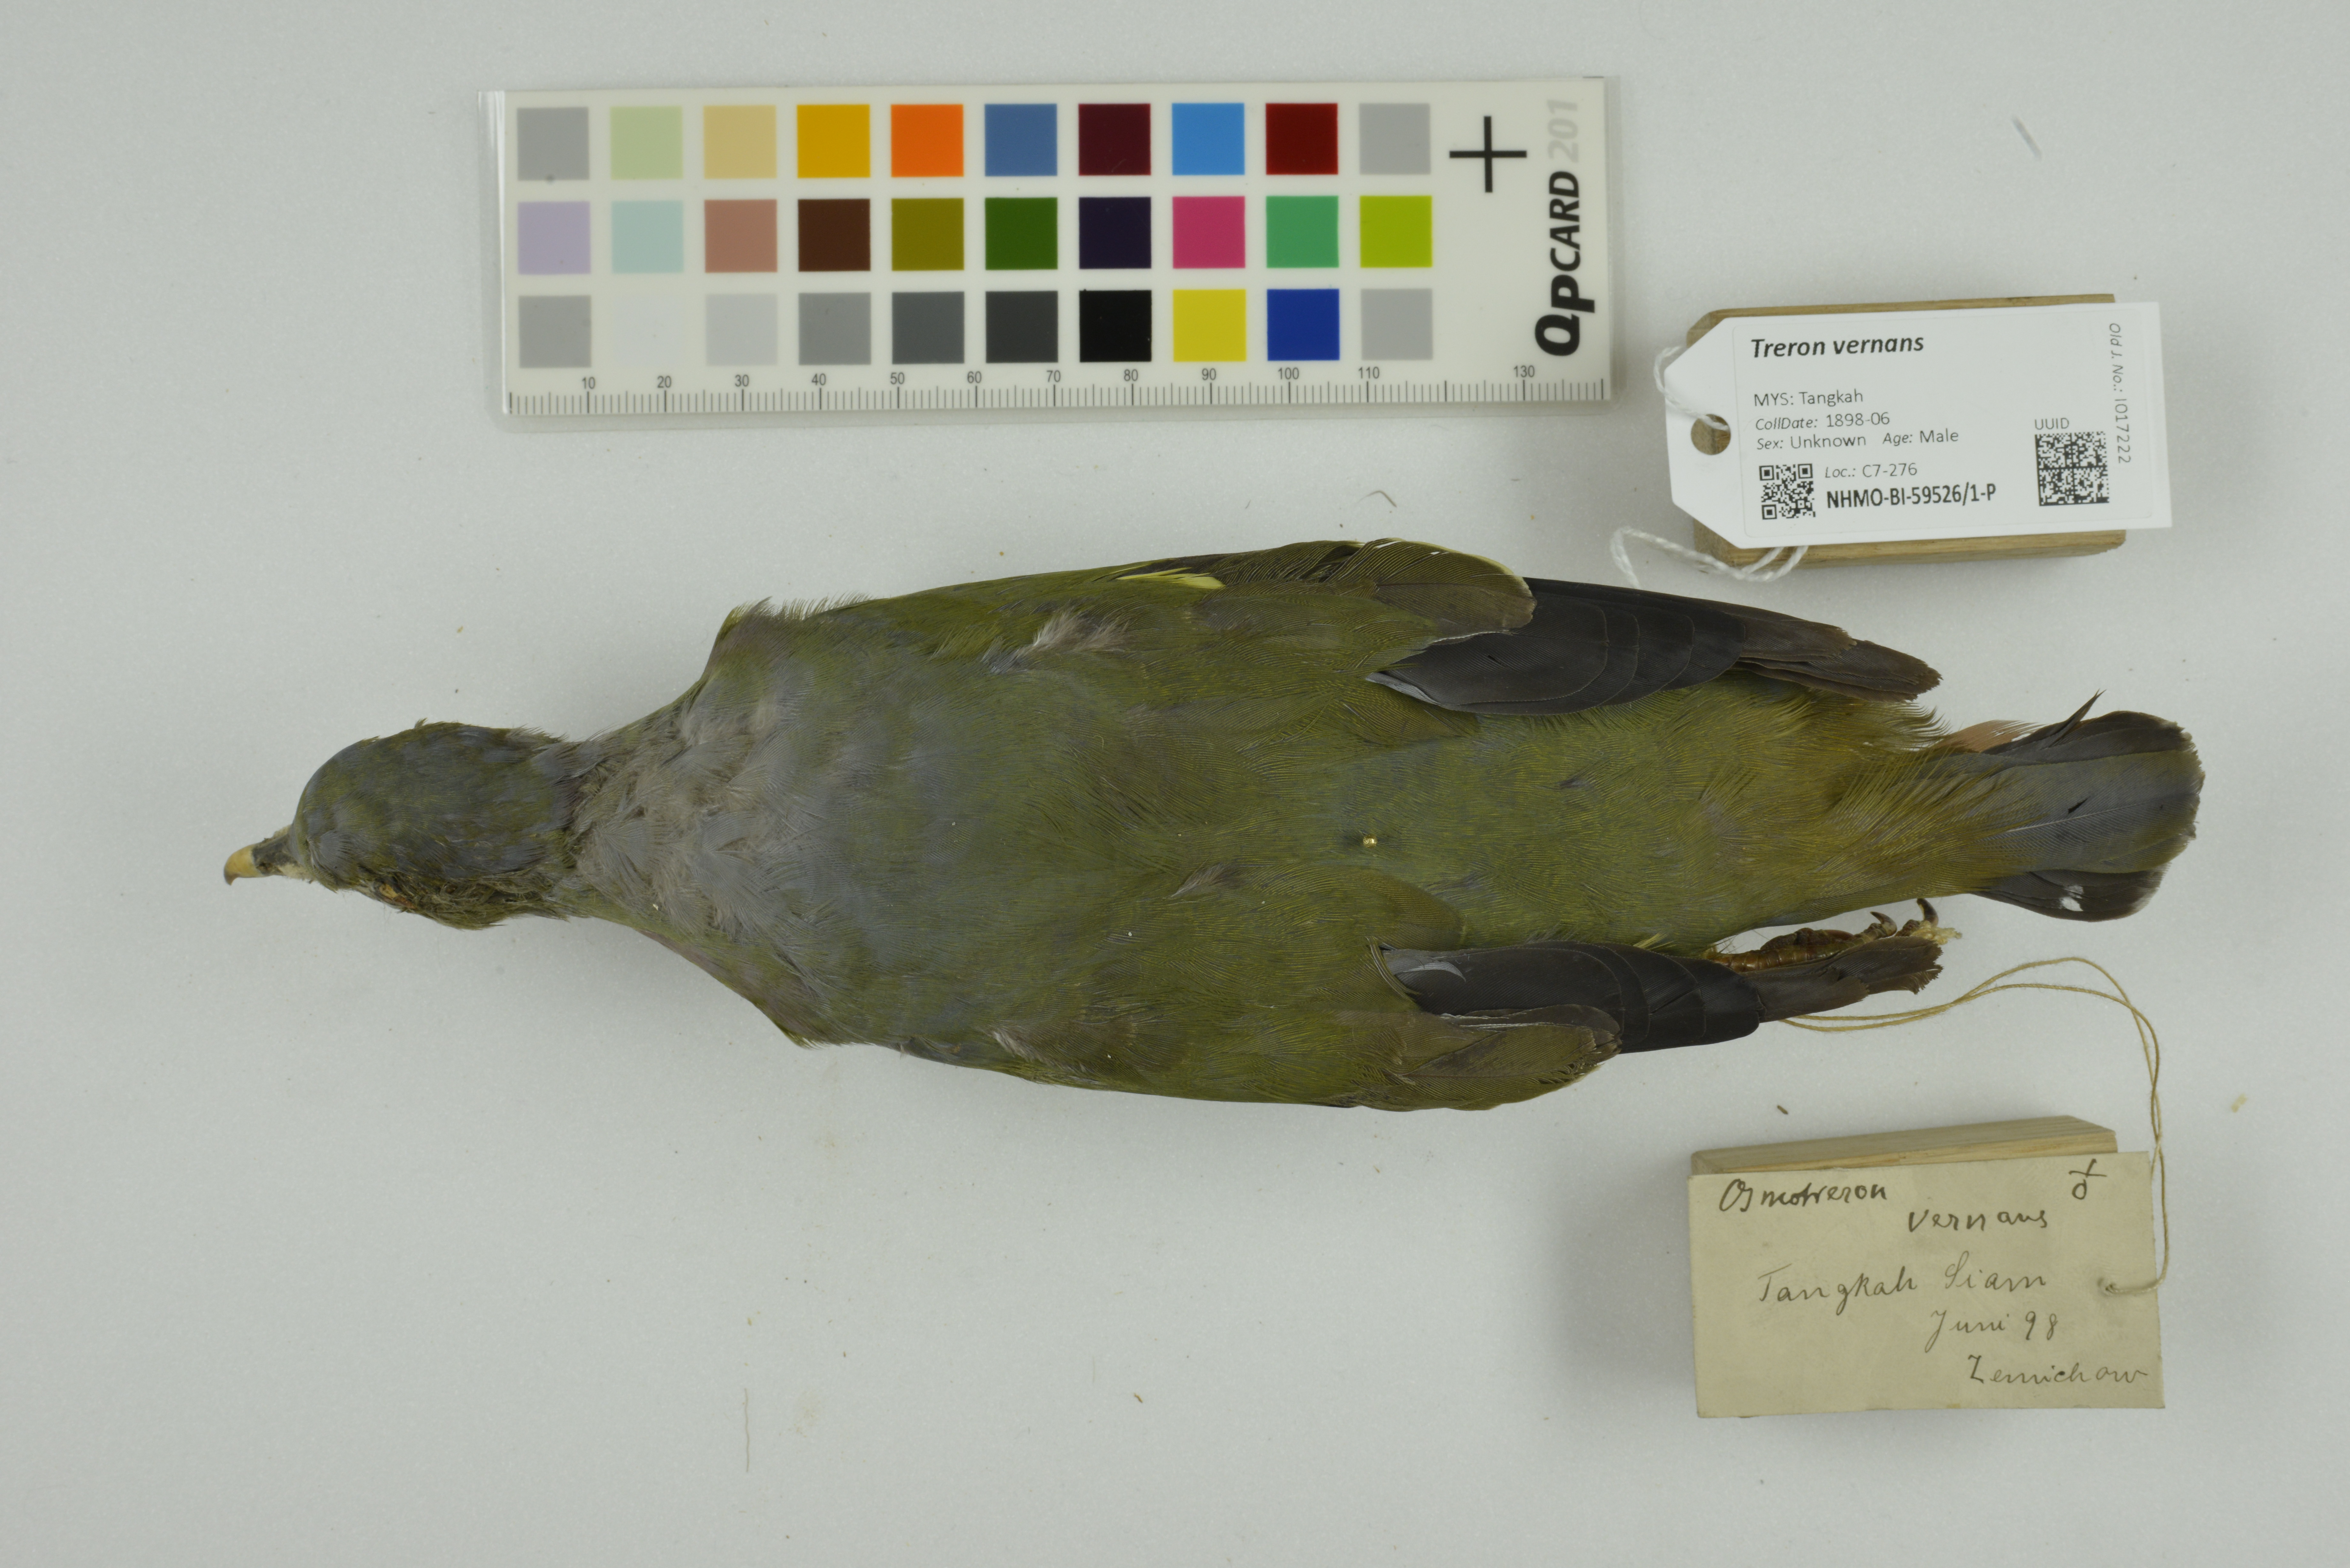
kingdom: Animalia
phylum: Chordata
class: Aves
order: Columbiformes
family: Columbidae
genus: Treron
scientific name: Treron vernans
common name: Pink-necked green pigeon
